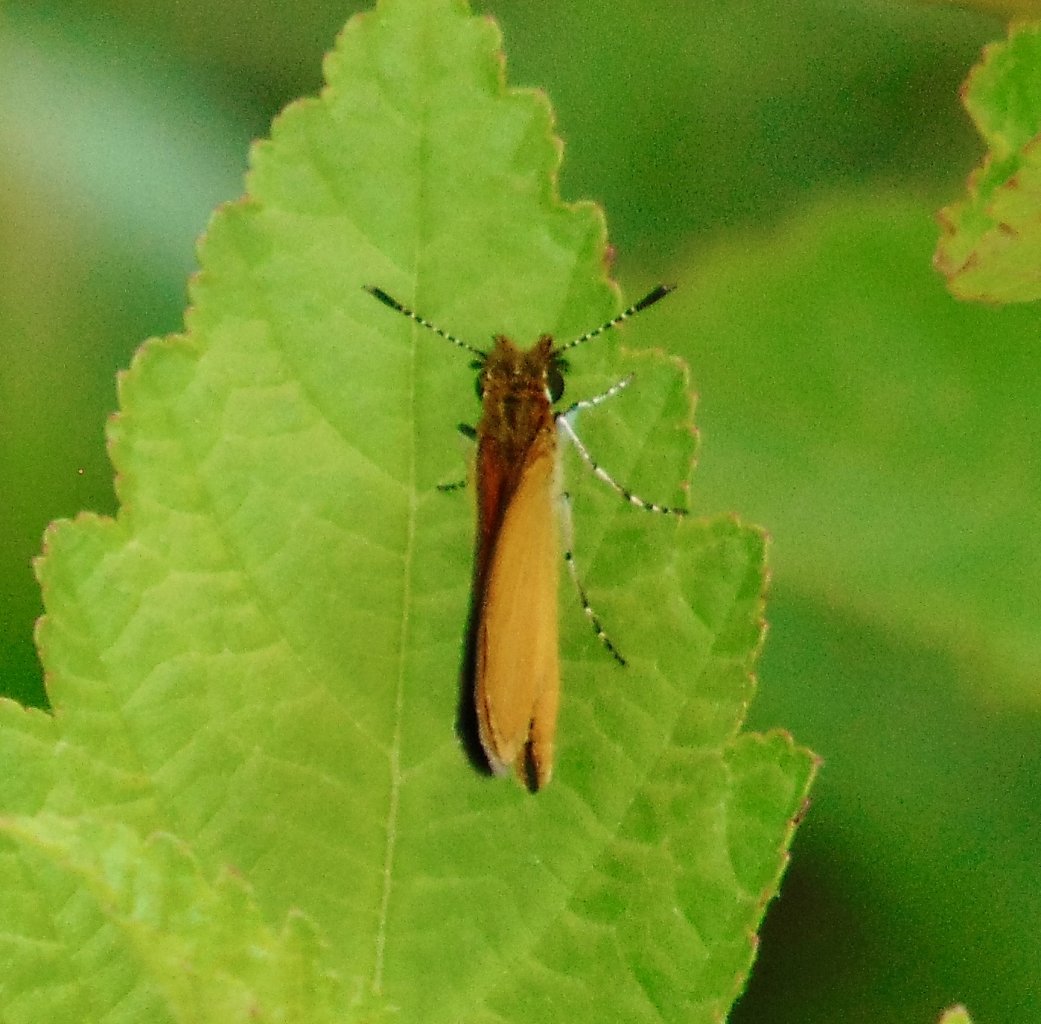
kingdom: Animalia
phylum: Arthropoda
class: Insecta
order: Lepidoptera
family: Hesperiidae
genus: Ancyloxypha
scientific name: Ancyloxypha numitor
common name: Least Skipper
